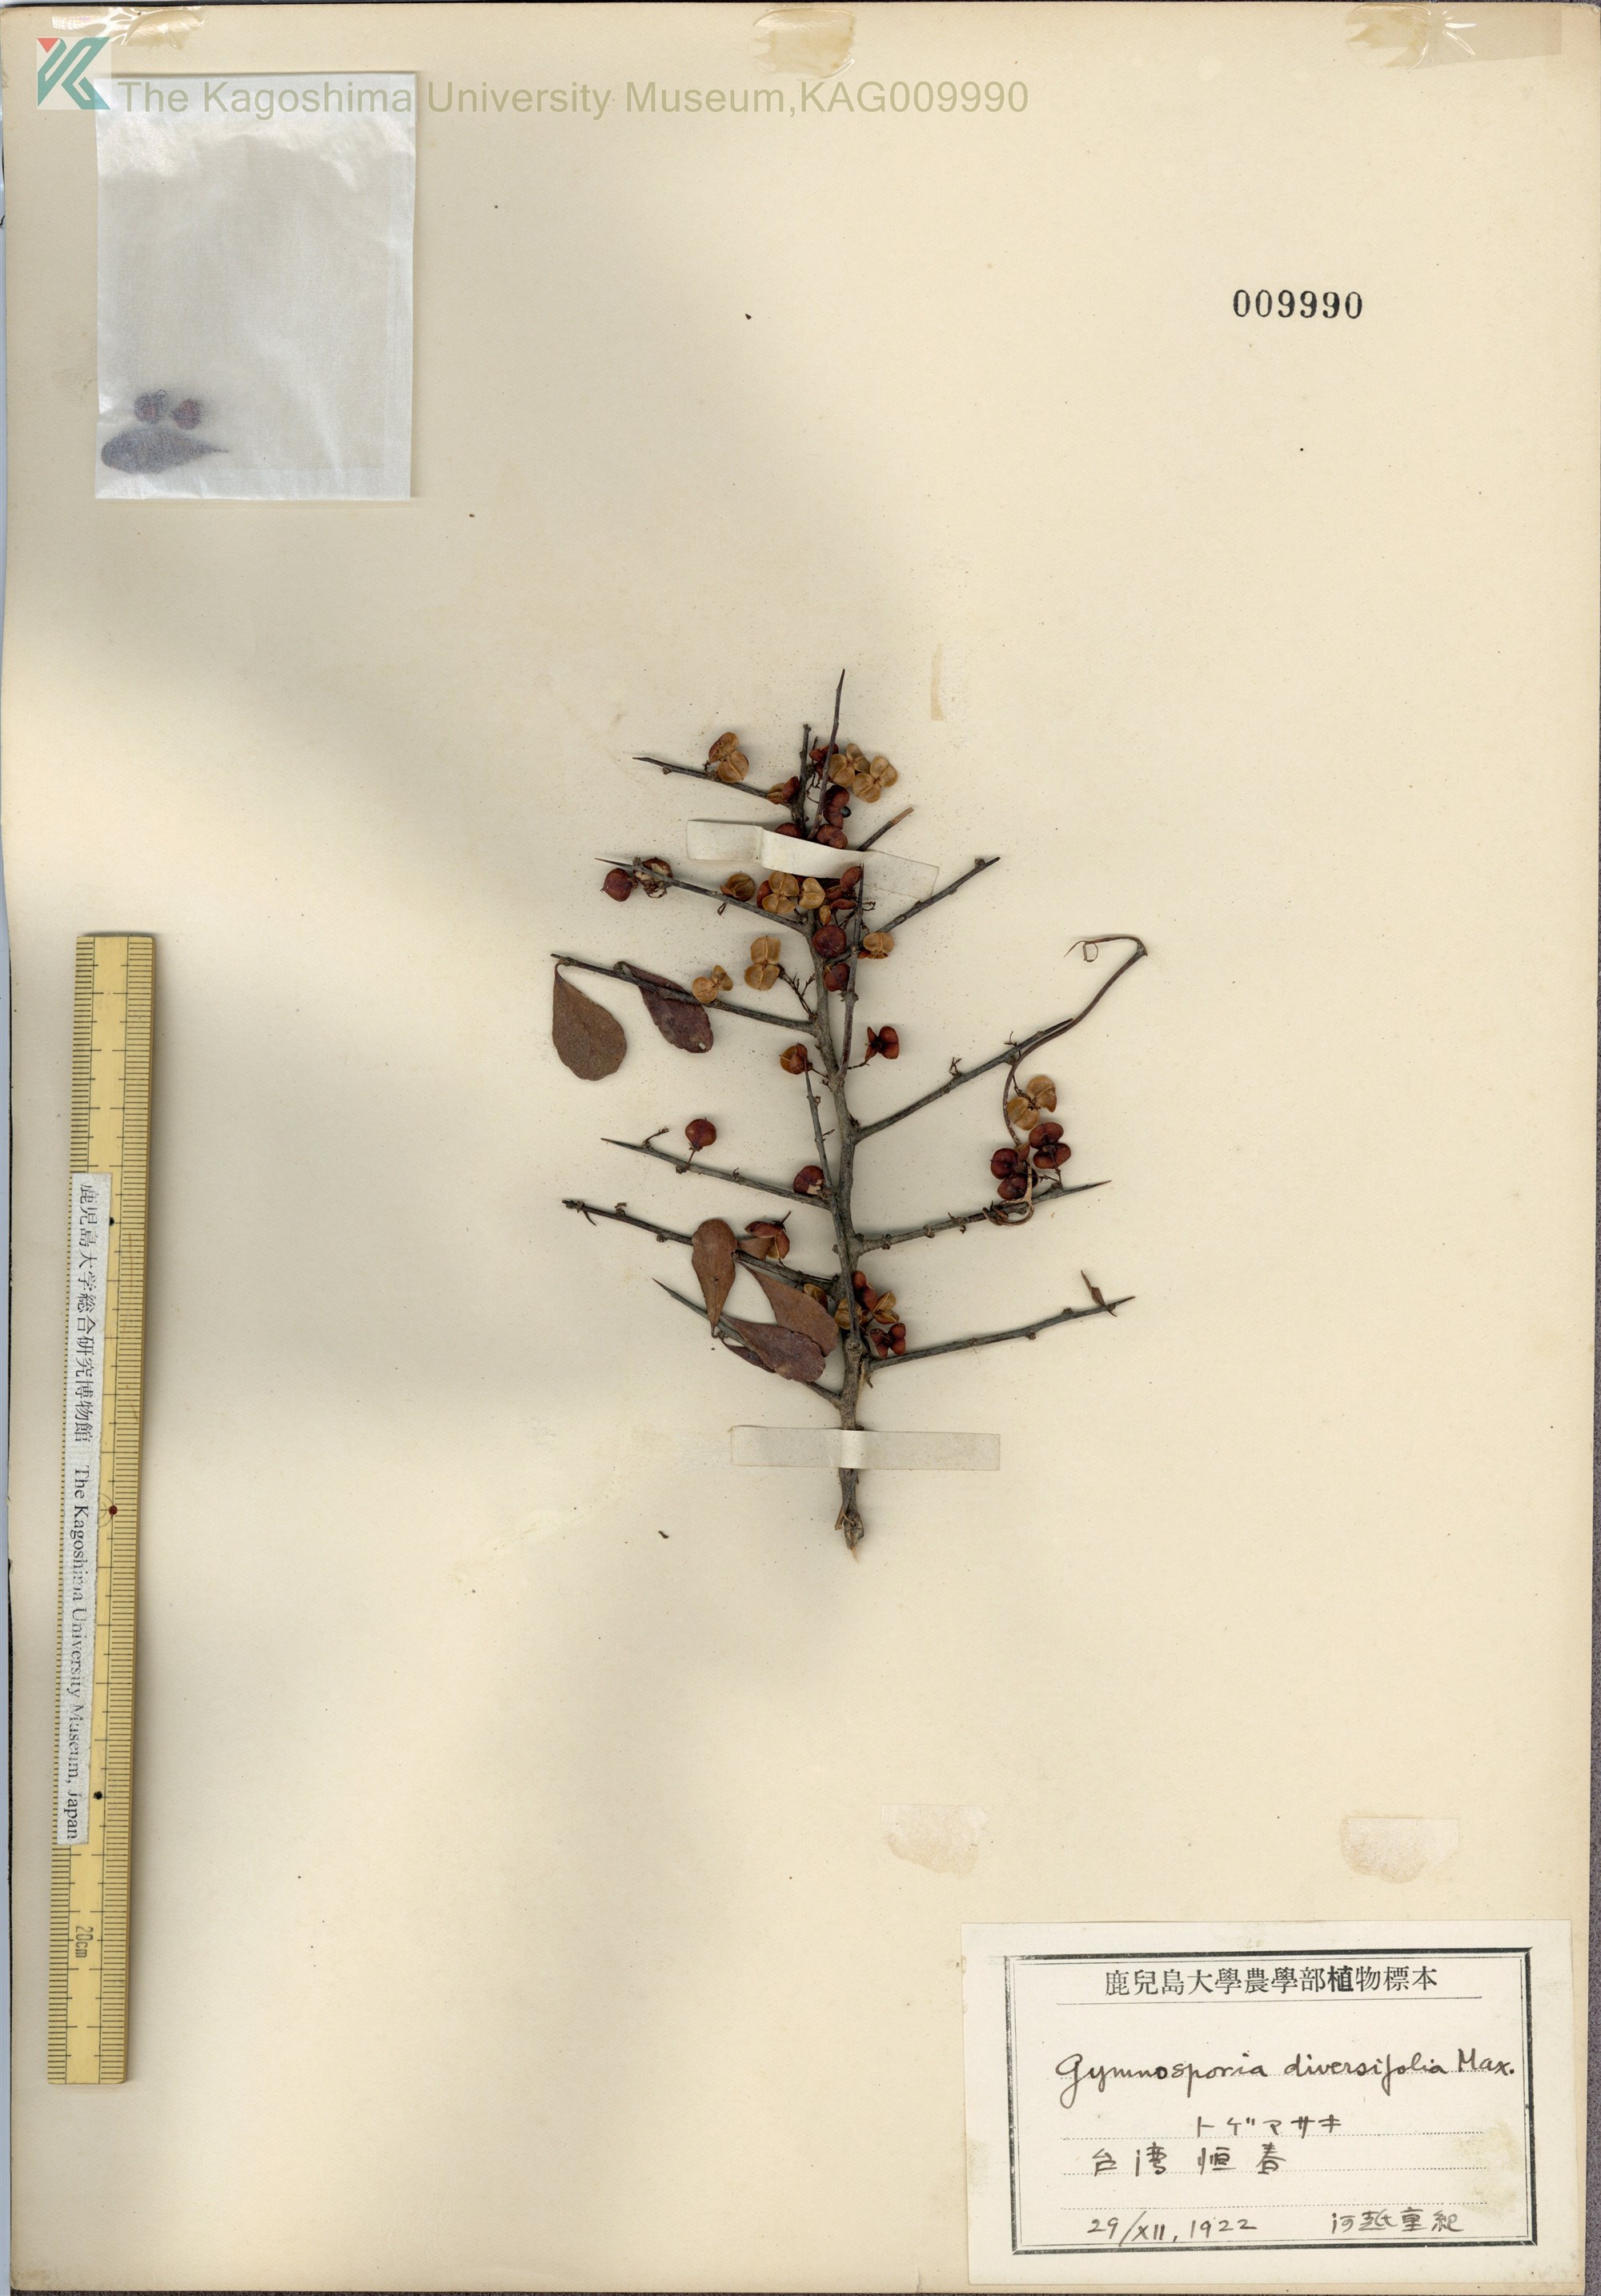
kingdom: Plantae
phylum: Tracheophyta
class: Magnoliopsida
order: Celastrales
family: Celastraceae
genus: Gymnosporia
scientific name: Gymnosporia diversifolia
